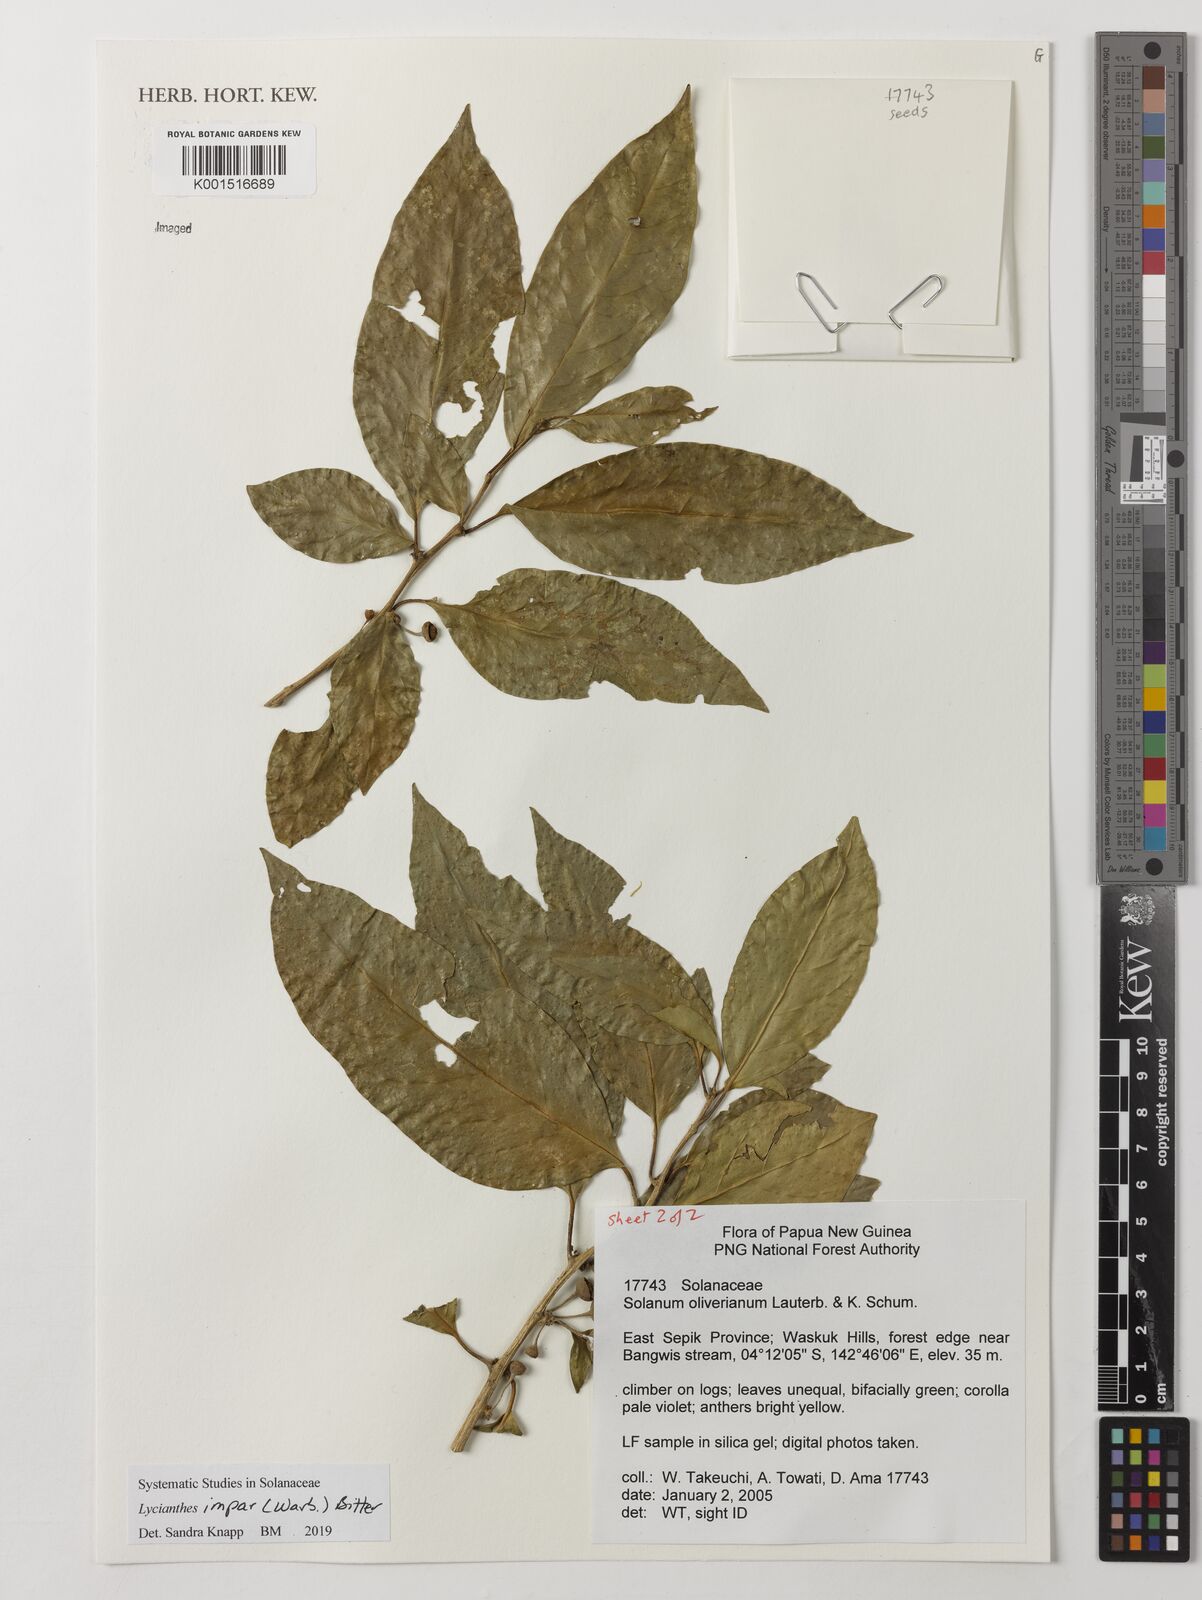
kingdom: Plantae
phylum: Tracheophyta
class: Magnoliopsida
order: Solanales
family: Solanaceae
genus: Lycianthes
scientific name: Lycianthes impar
